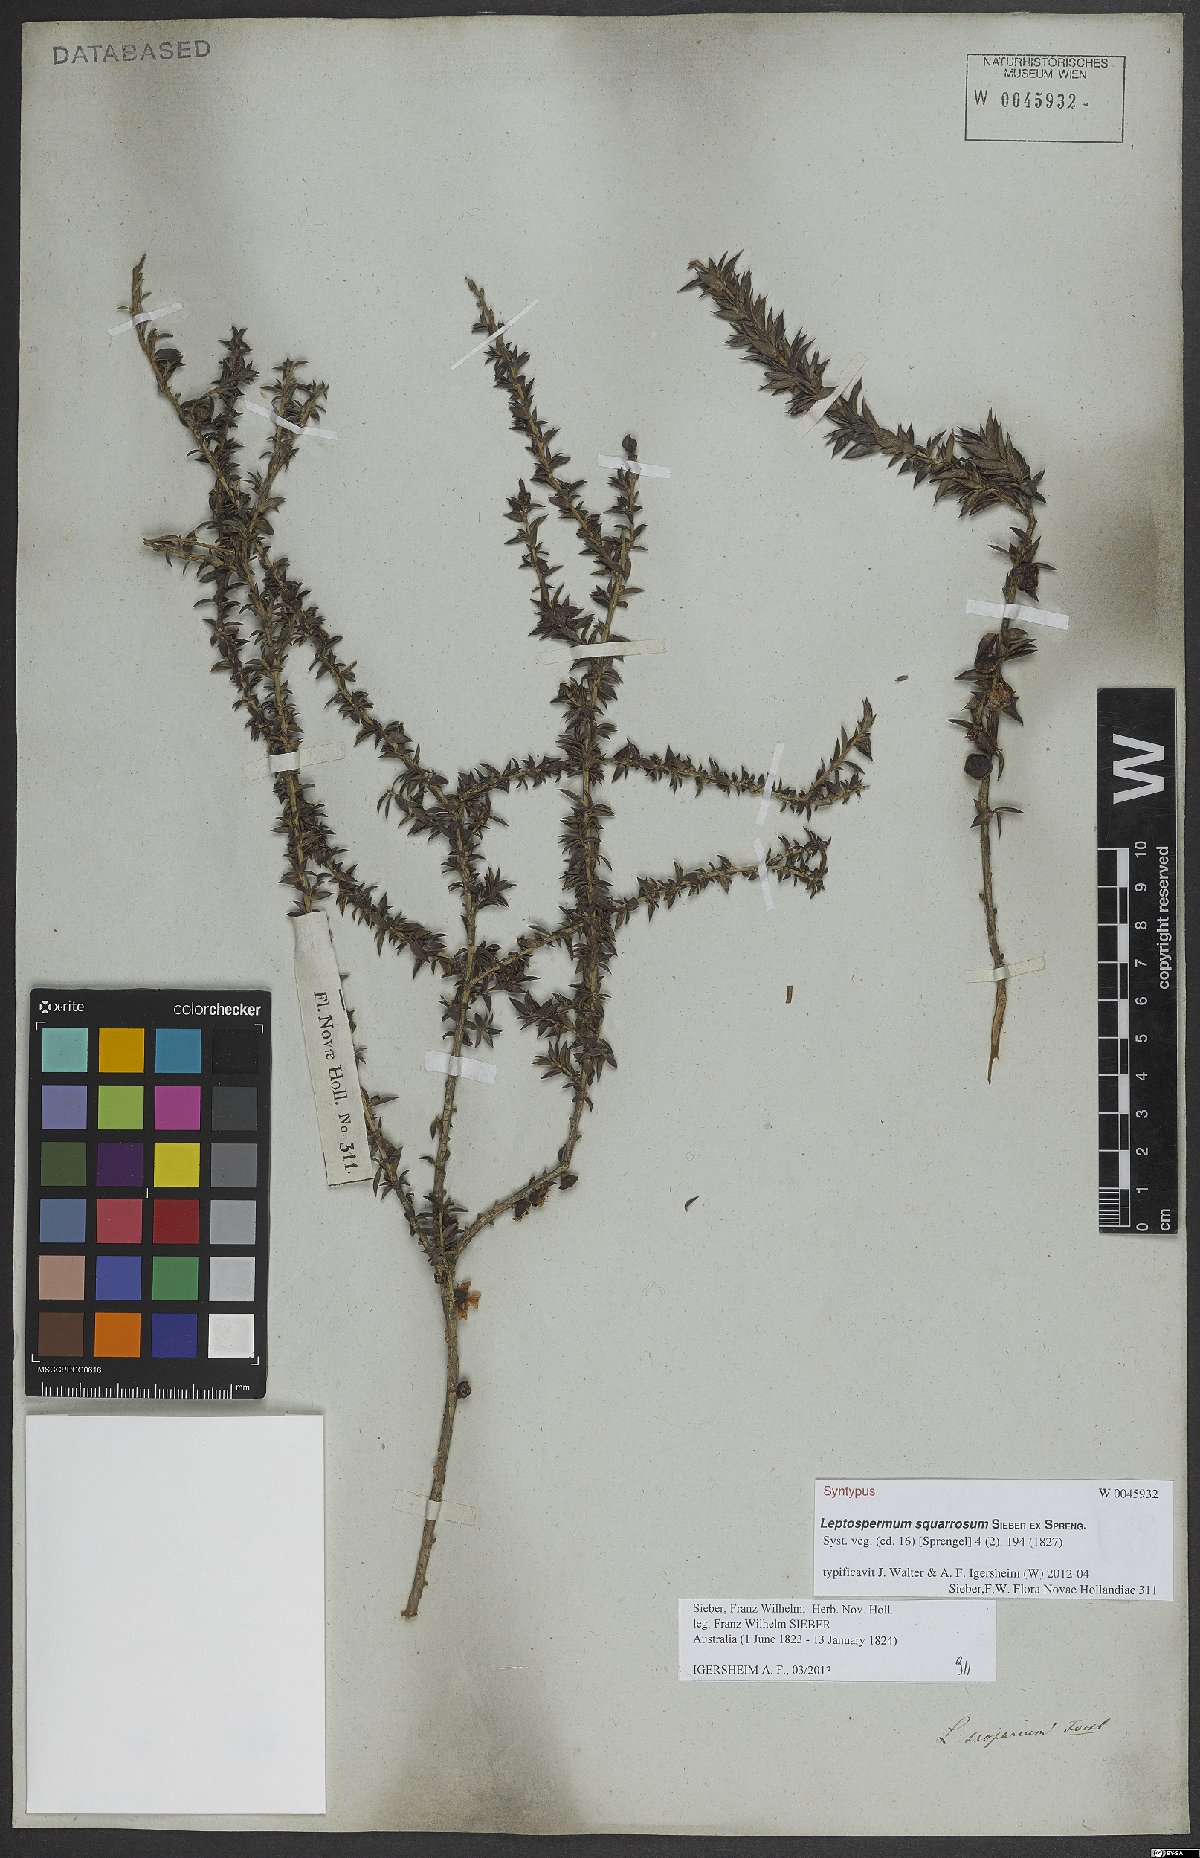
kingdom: Plantae
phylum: Tracheophyta
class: Magnoliopsida
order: Myrtales
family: Myrtaceae
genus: Leptospermum
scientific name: Leptospermum squarrosum
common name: Peach-blossom teatree
